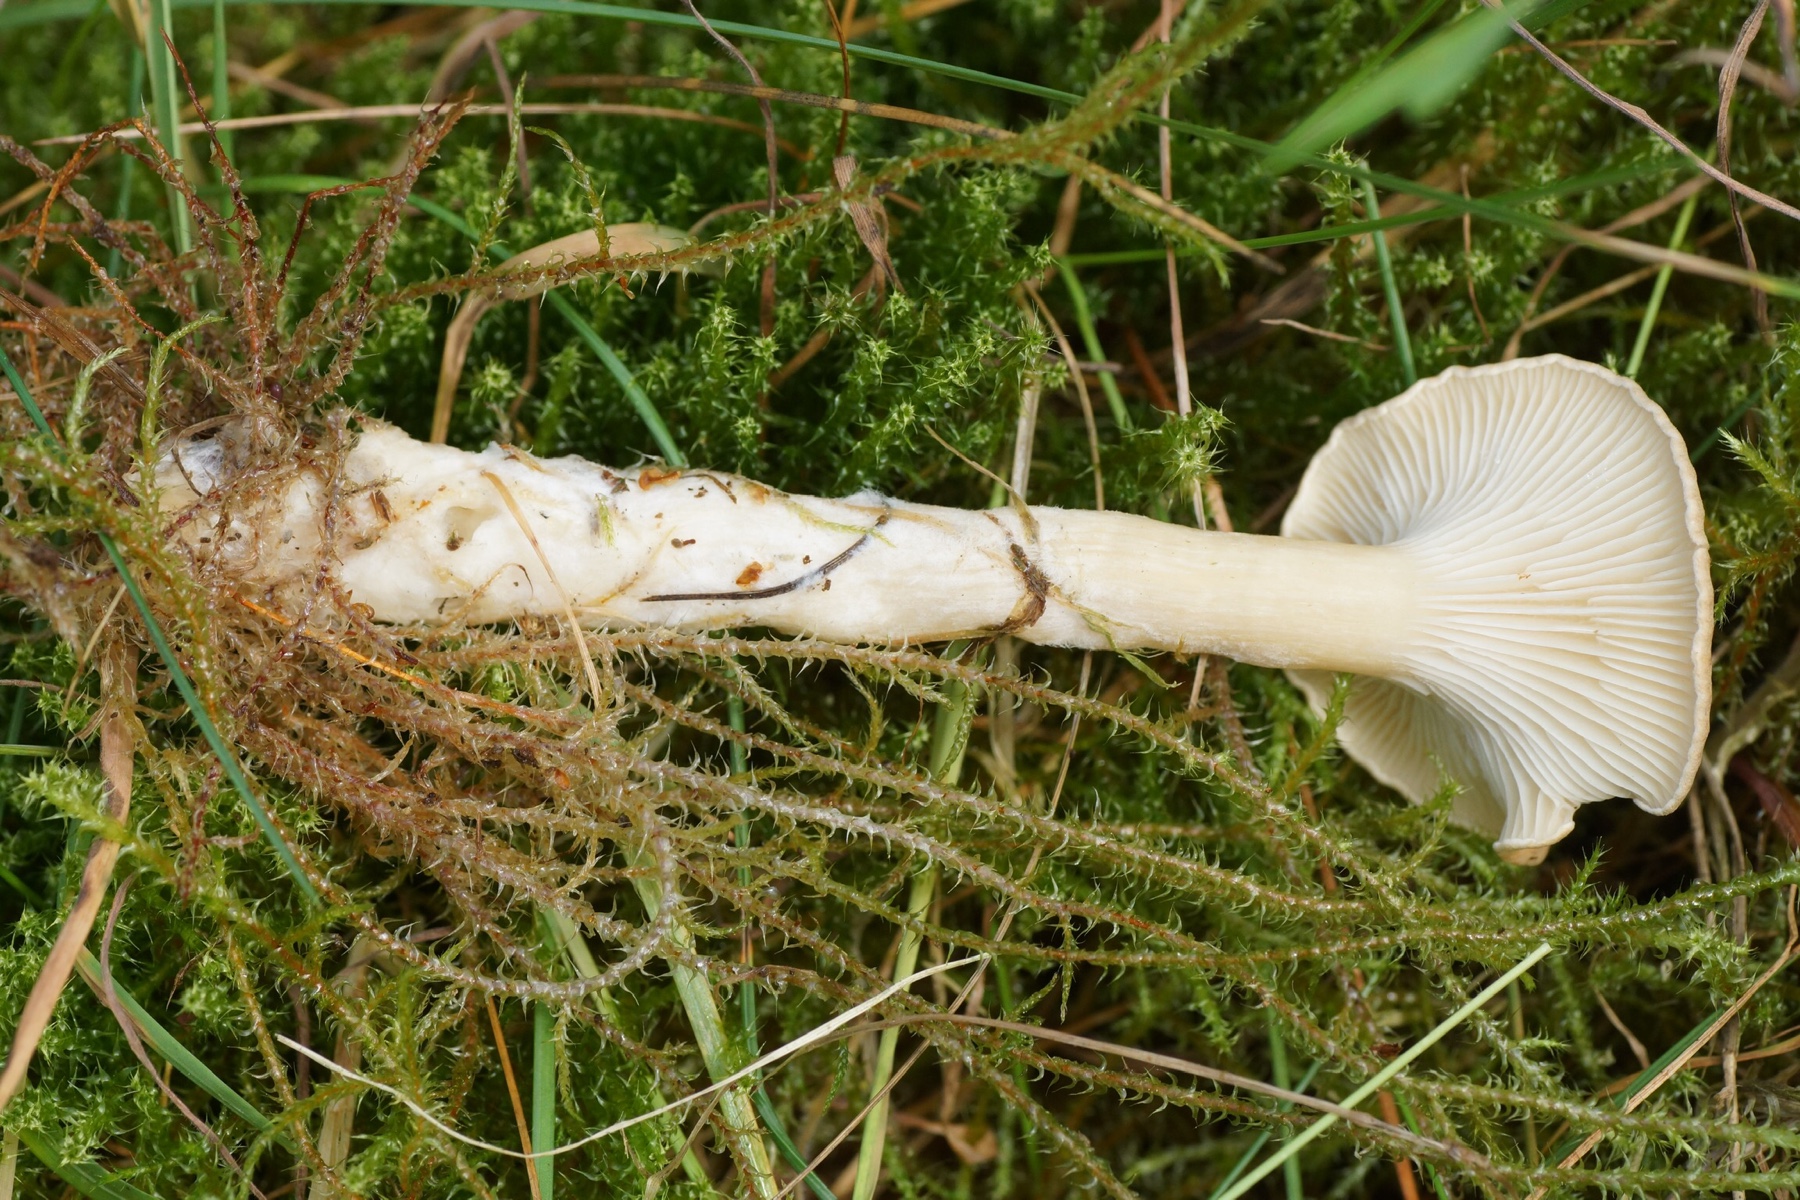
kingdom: Fungi
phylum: Basidiomycota
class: Agaricomycetes
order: Agaricales
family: Tricholomataceae
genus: Infundibulicybe
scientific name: Infundibulicybe gibba
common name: almindelig tragthat
